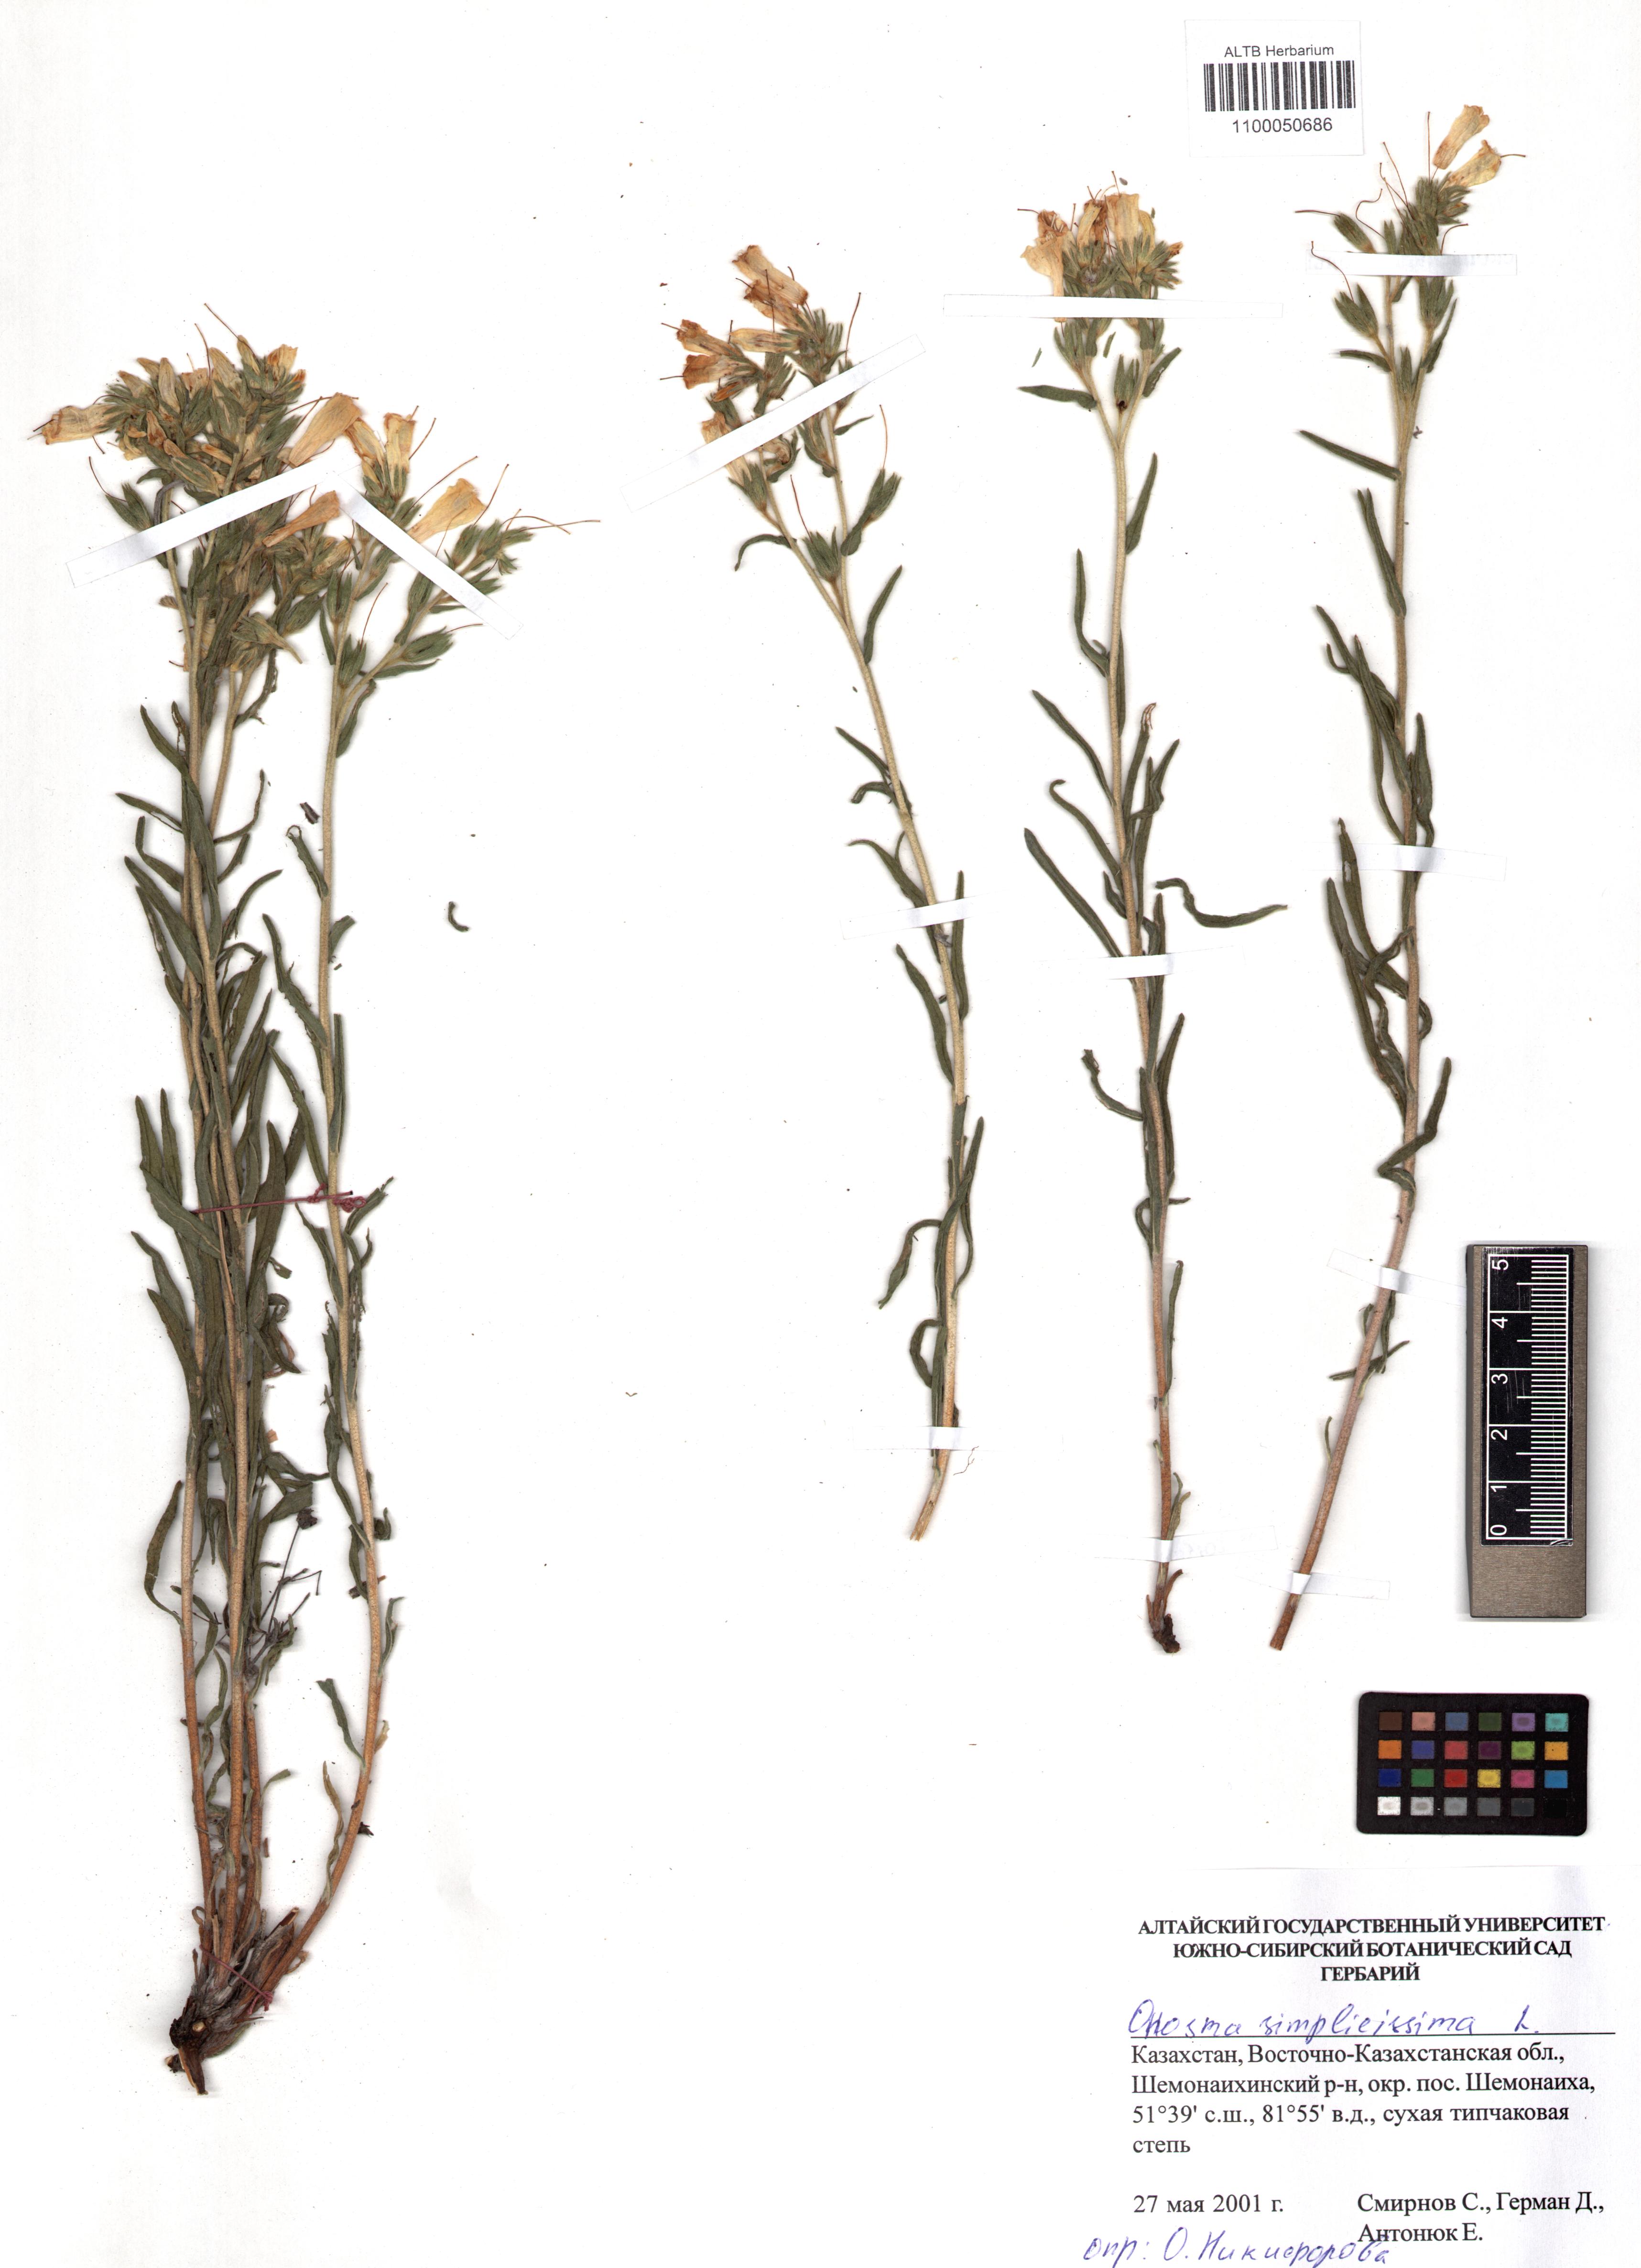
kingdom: Plantae
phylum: Tracheophyta
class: Magnoliopsida
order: Boraginales
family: Boraginaceae
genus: Onosma
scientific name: Onosma simplicissima
